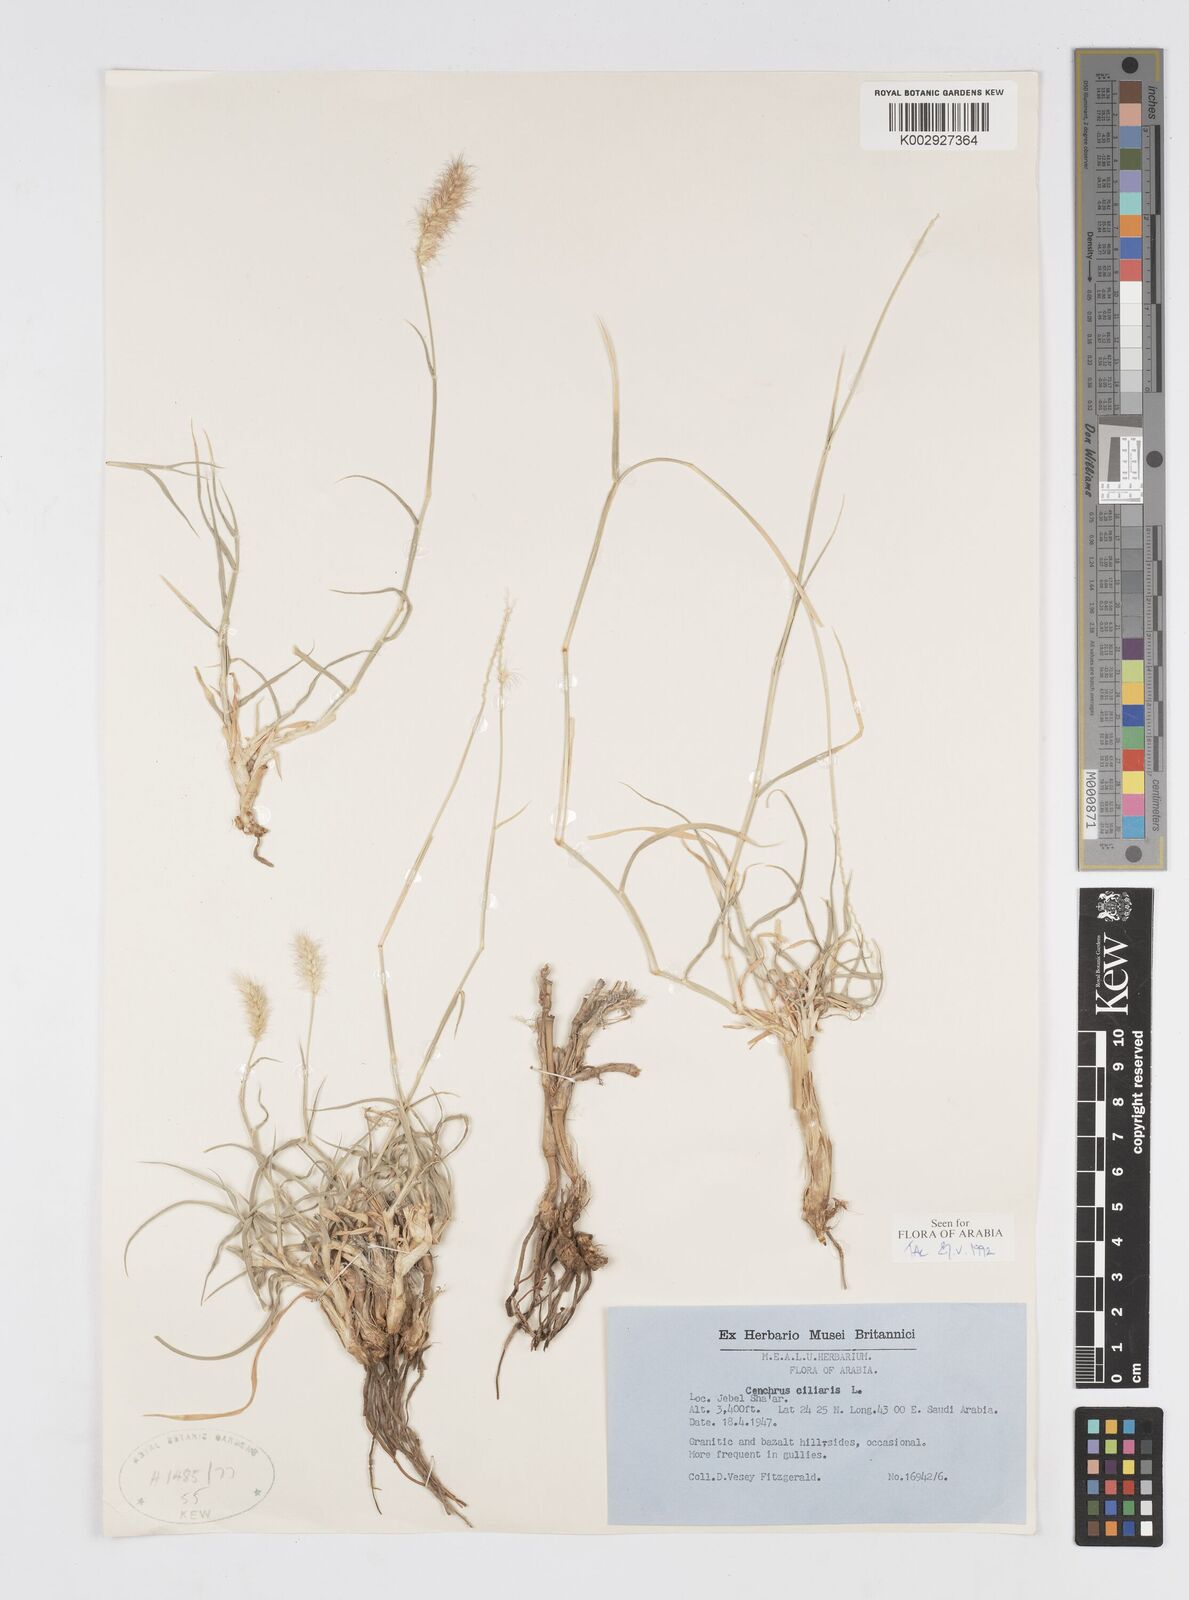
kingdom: Plantae
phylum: Tracheophyta
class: Liliopsida
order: Poales
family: Poaceae
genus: Cenchrus
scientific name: Cenchrus ciliaris
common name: Buffelgrass
